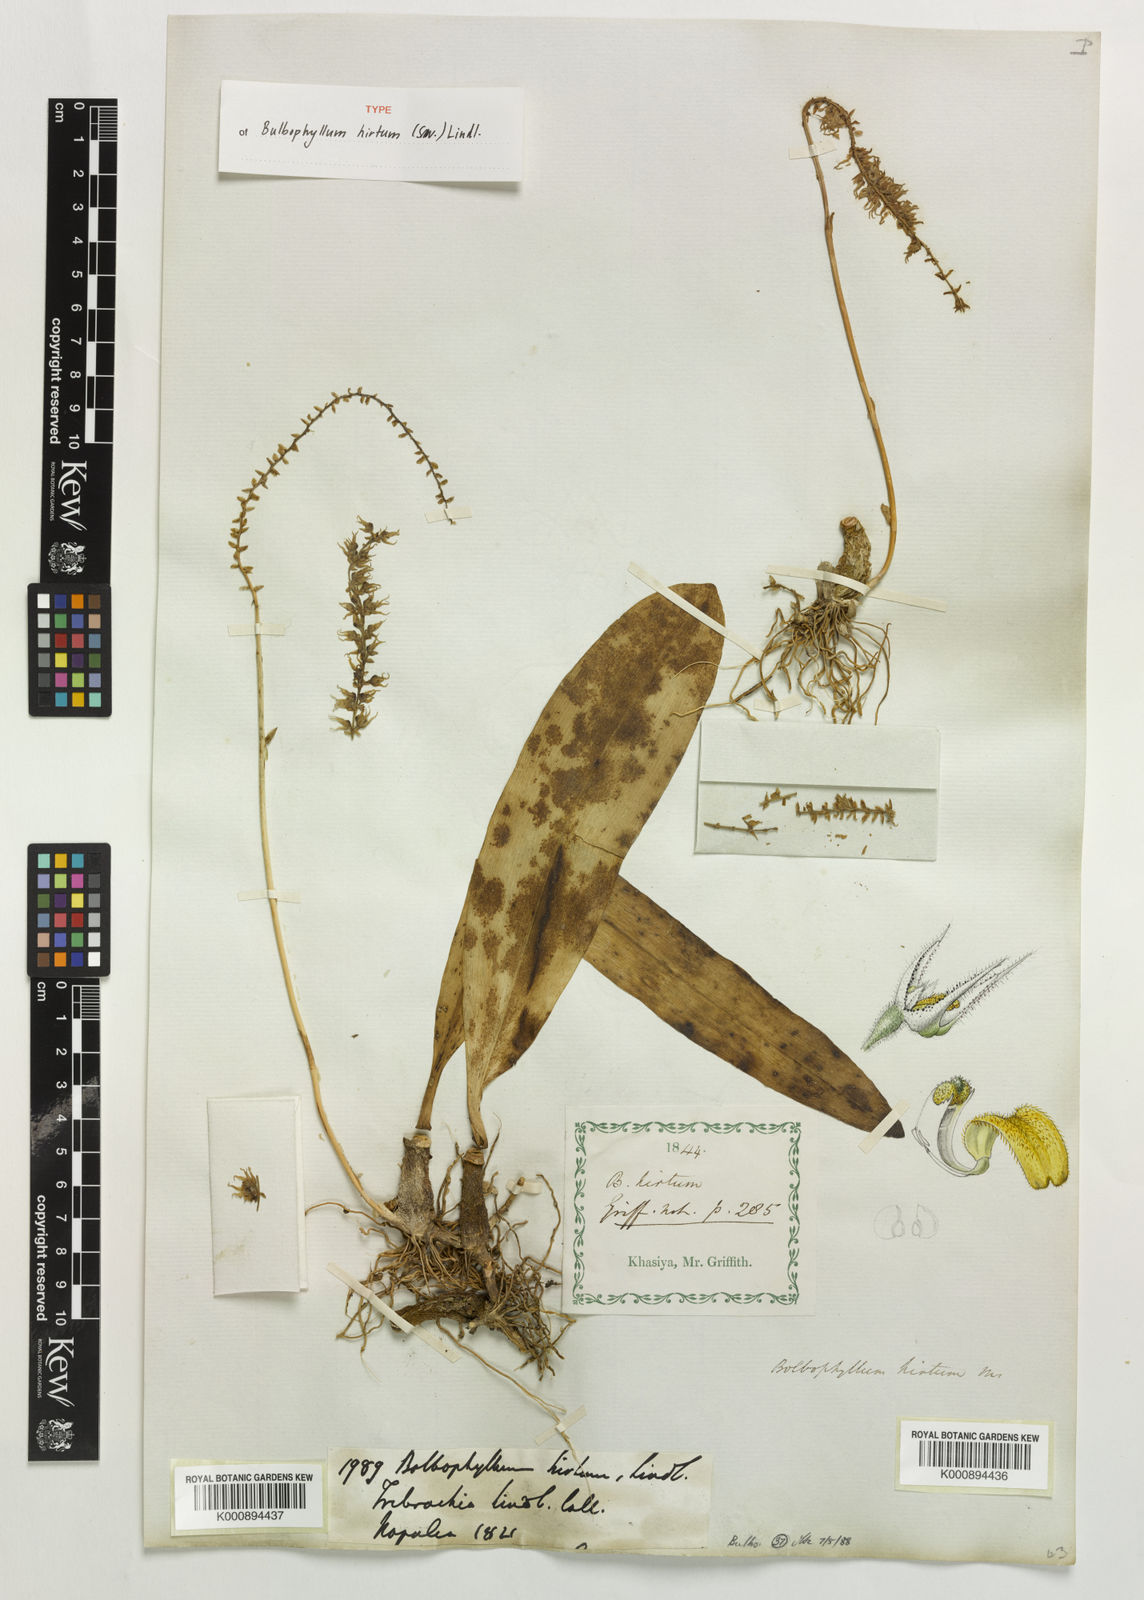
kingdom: Plantae
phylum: Tracheophyta
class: Liliopsida
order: Asparagales
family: Orchidaceae
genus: Bulbophyllum
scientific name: Bulbophyllum hirtum
